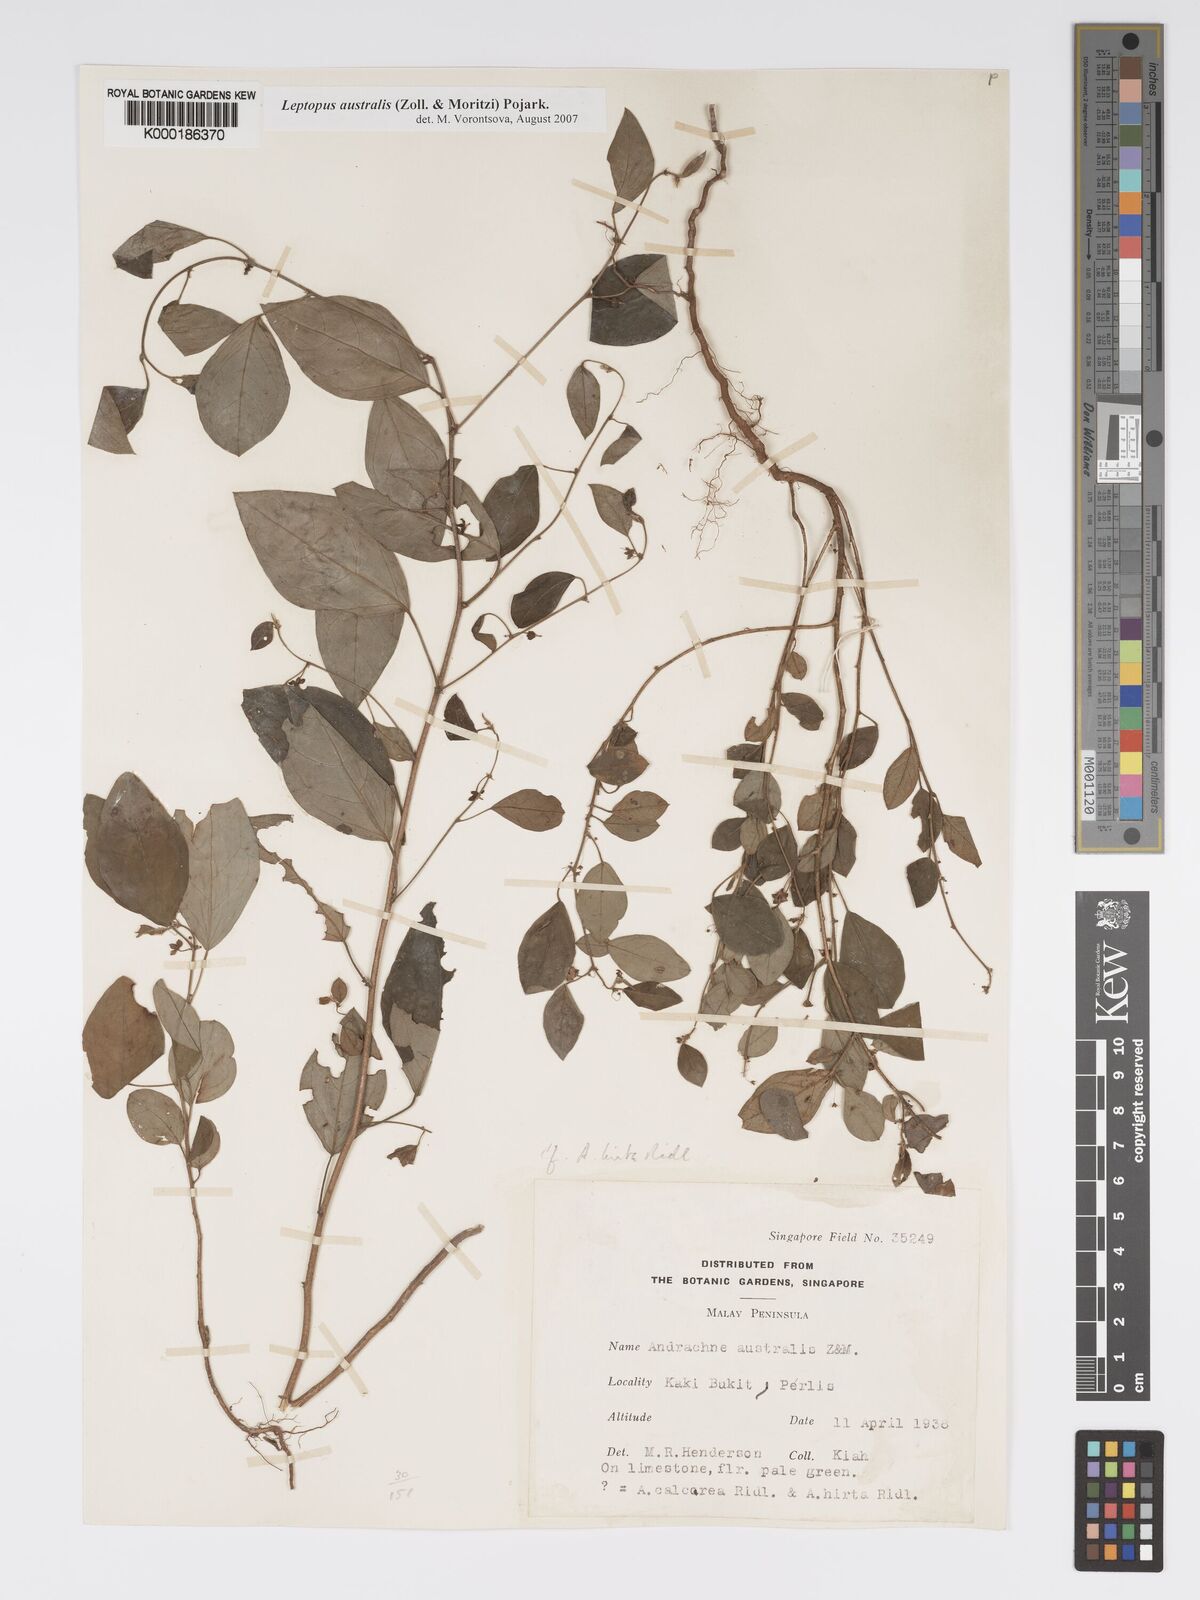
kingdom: Plantae
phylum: Tracheophyta
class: Magnoliopsida
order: Malpighiales
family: Phyllanthaceae
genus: Leptopus
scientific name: Leptopus australis
